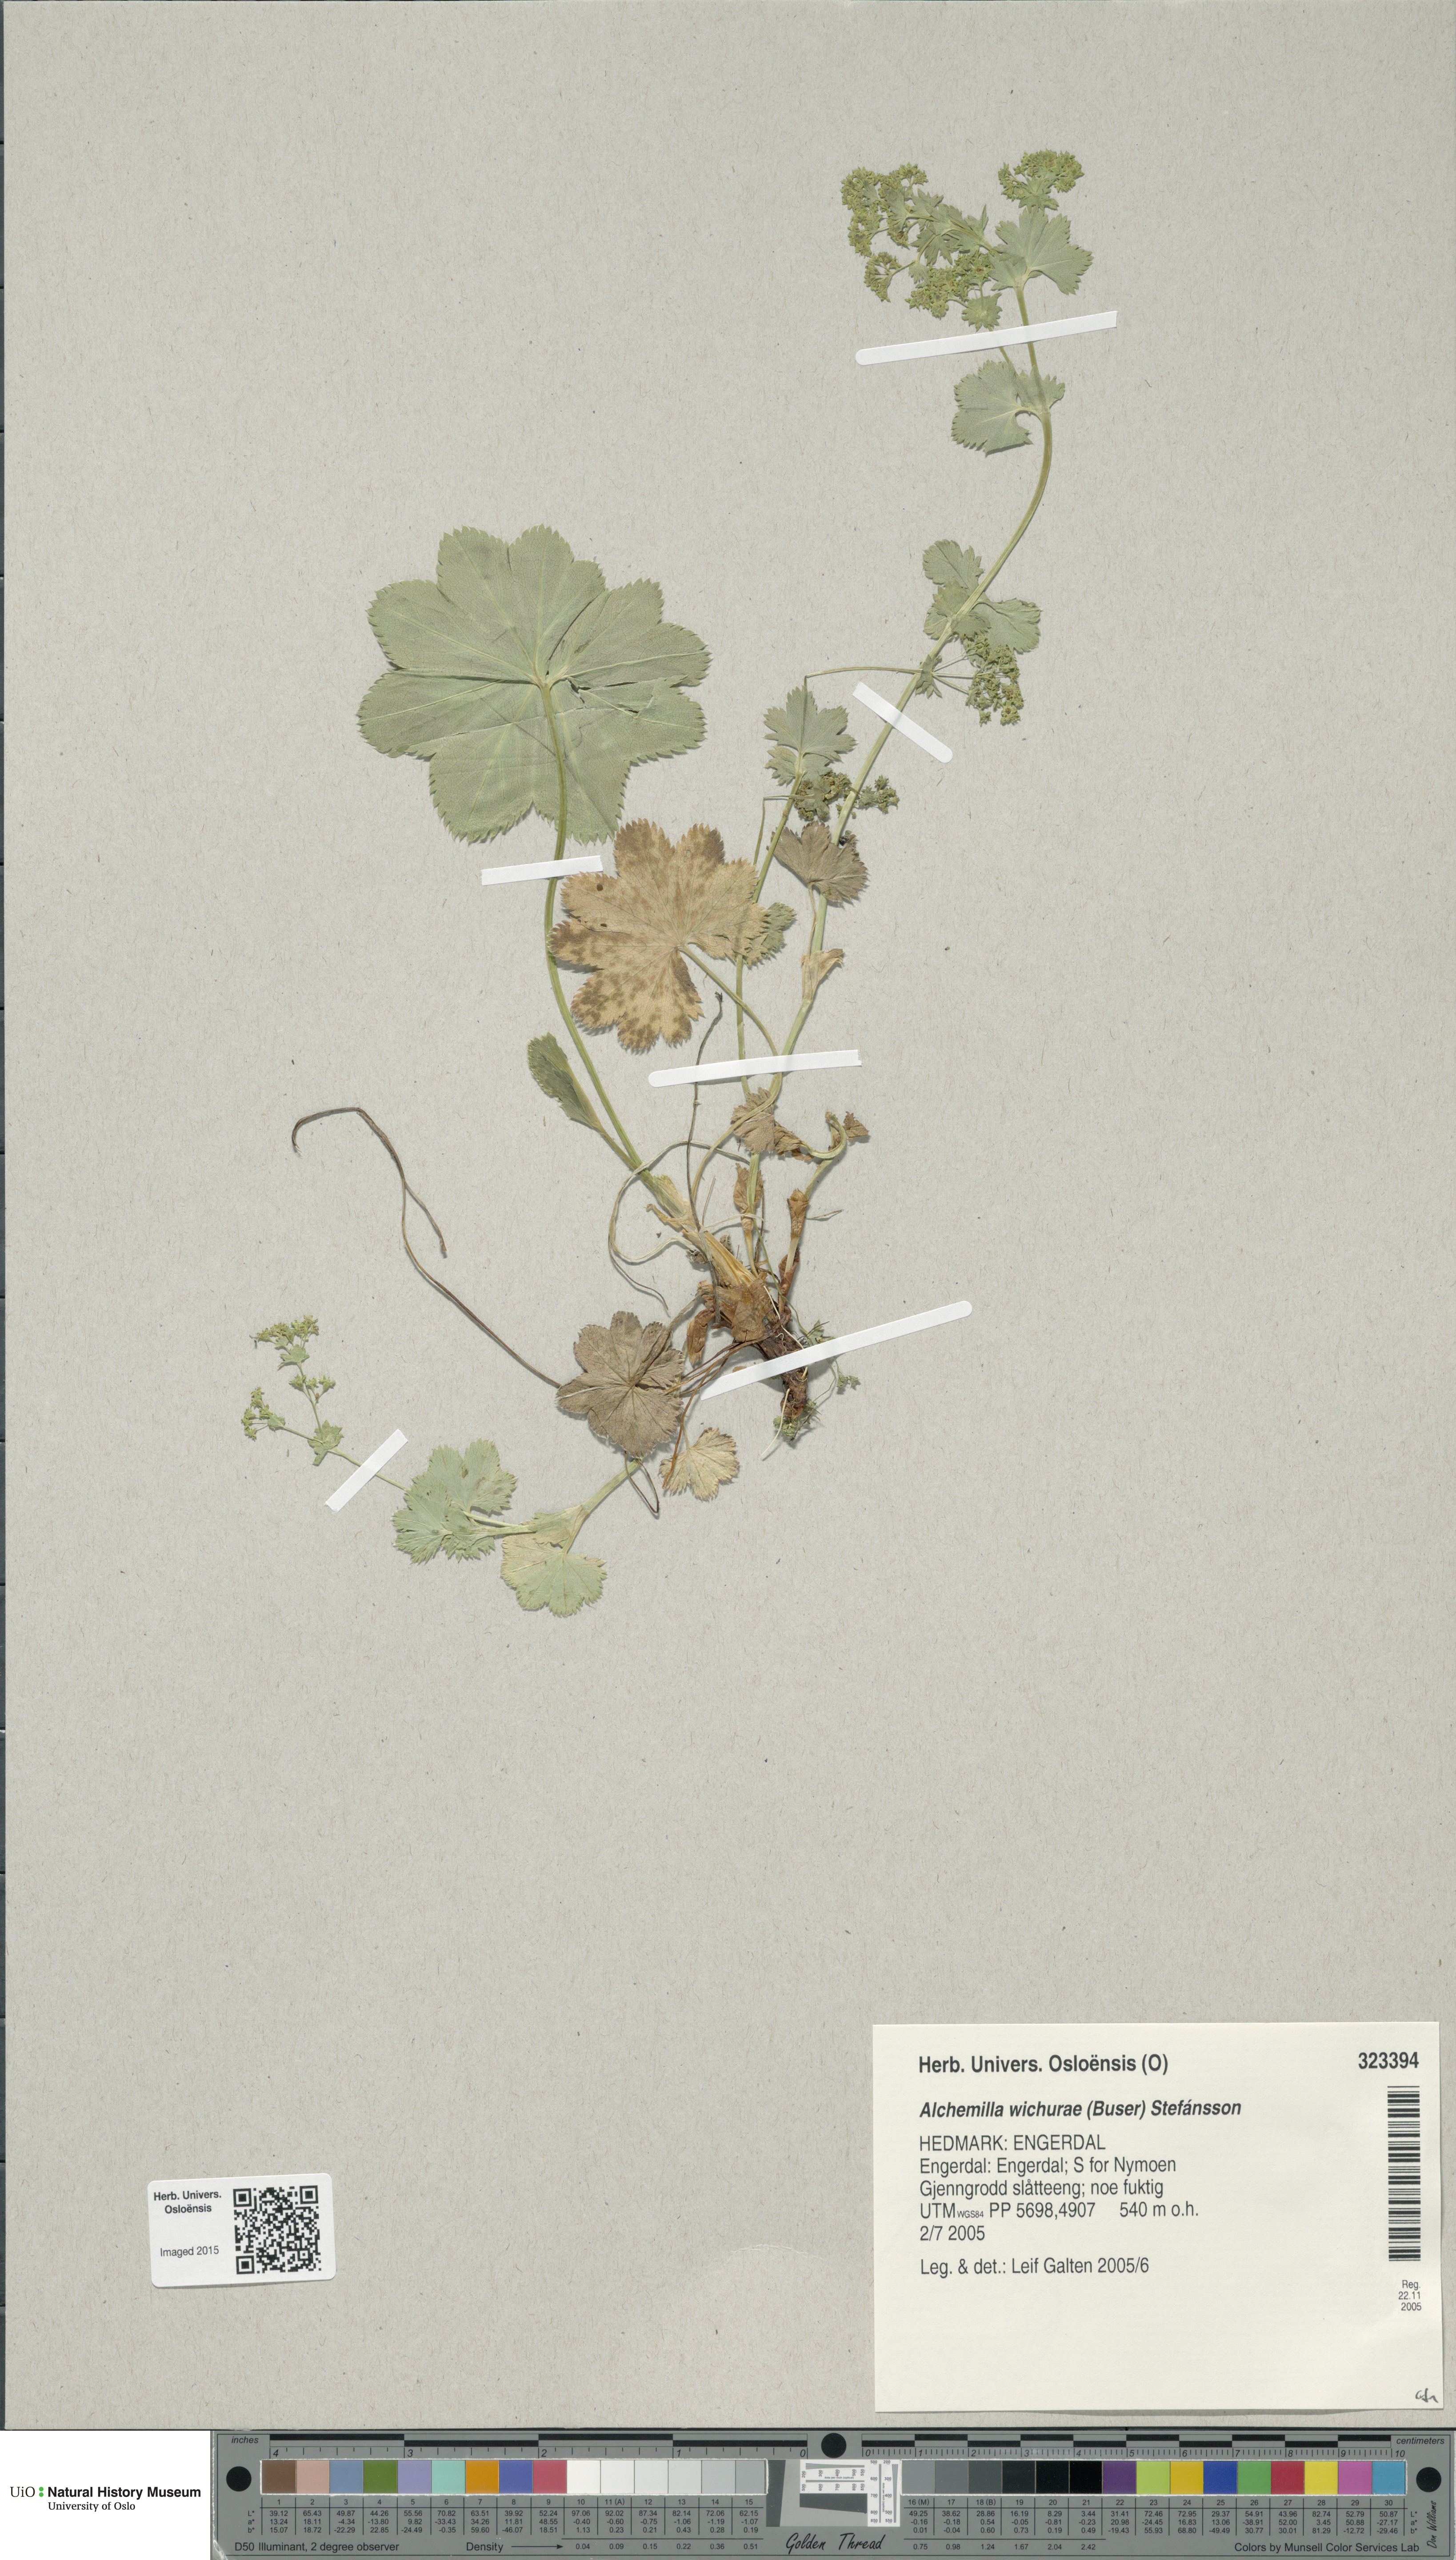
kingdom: Plantae
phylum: Tracheophyta
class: Magnoliopsida
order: Rosales
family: Rosaceae
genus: Alchemilla
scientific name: Alchemilla wichurae
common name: Rock lady's mantle
